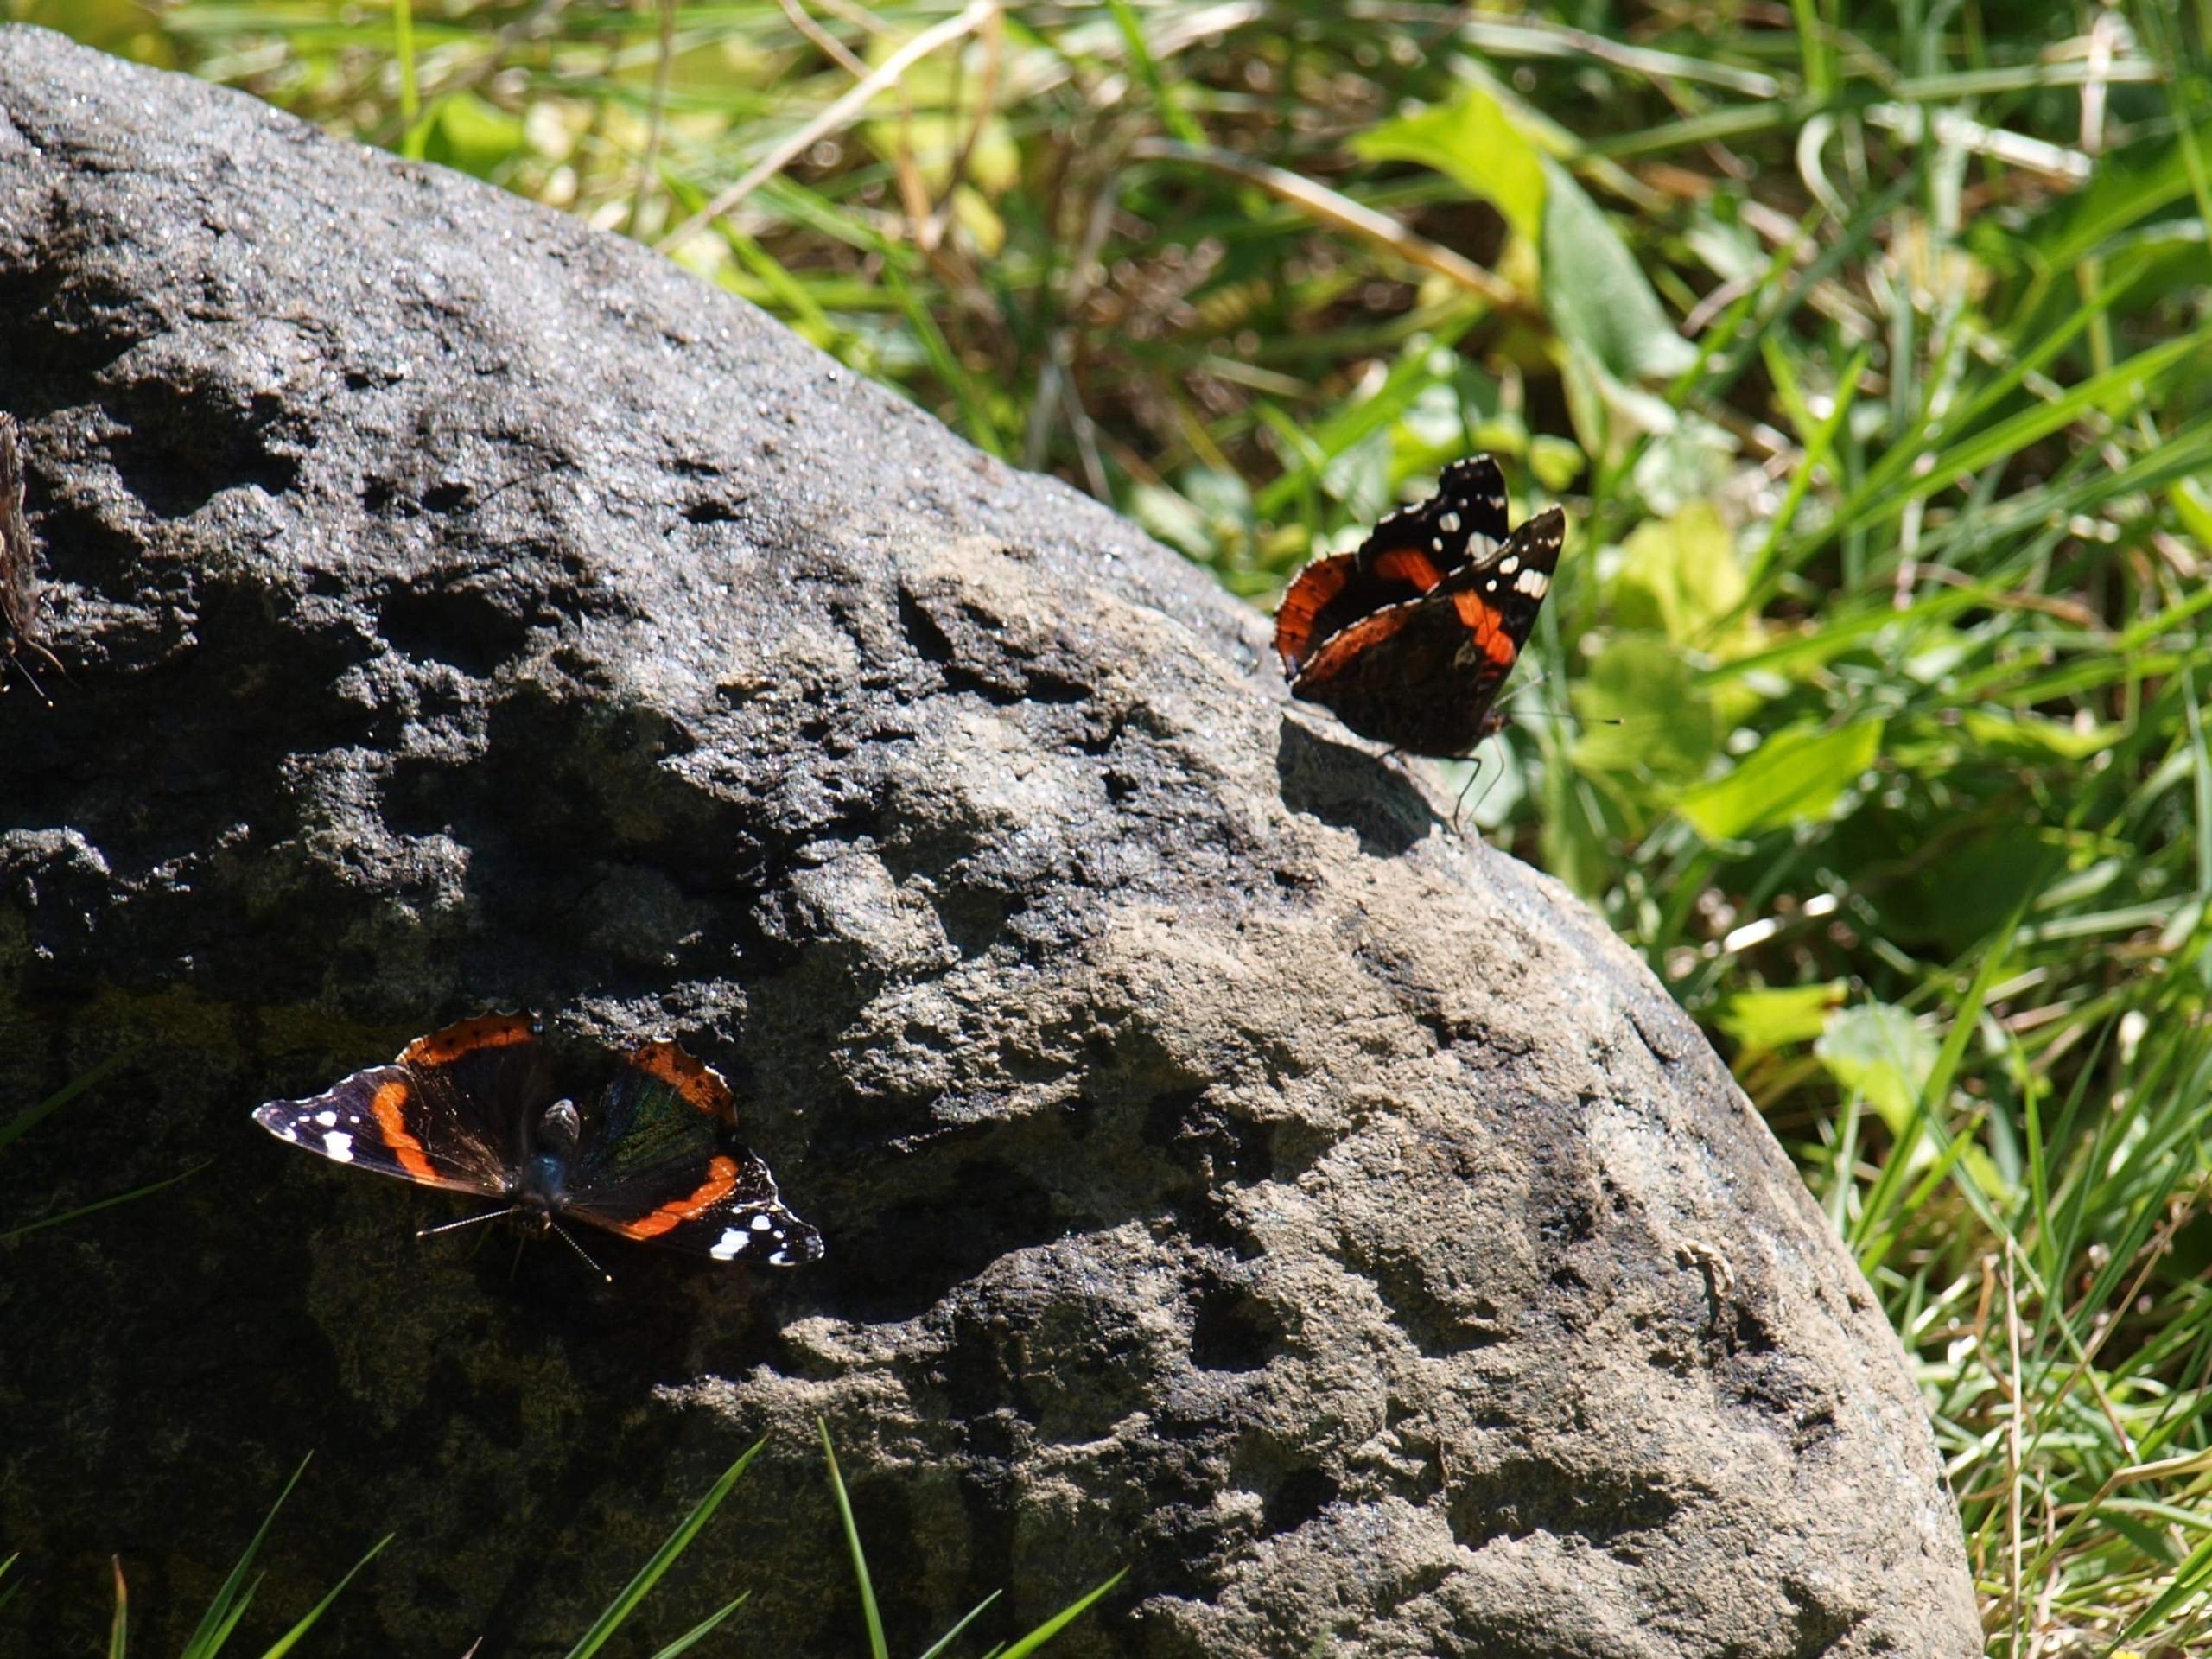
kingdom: Animalia
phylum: Arthropoda
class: Insecta
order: Lepidoptera
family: Nymphalidae
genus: Vanessa
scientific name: Vanessa atalanta
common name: Admiral
